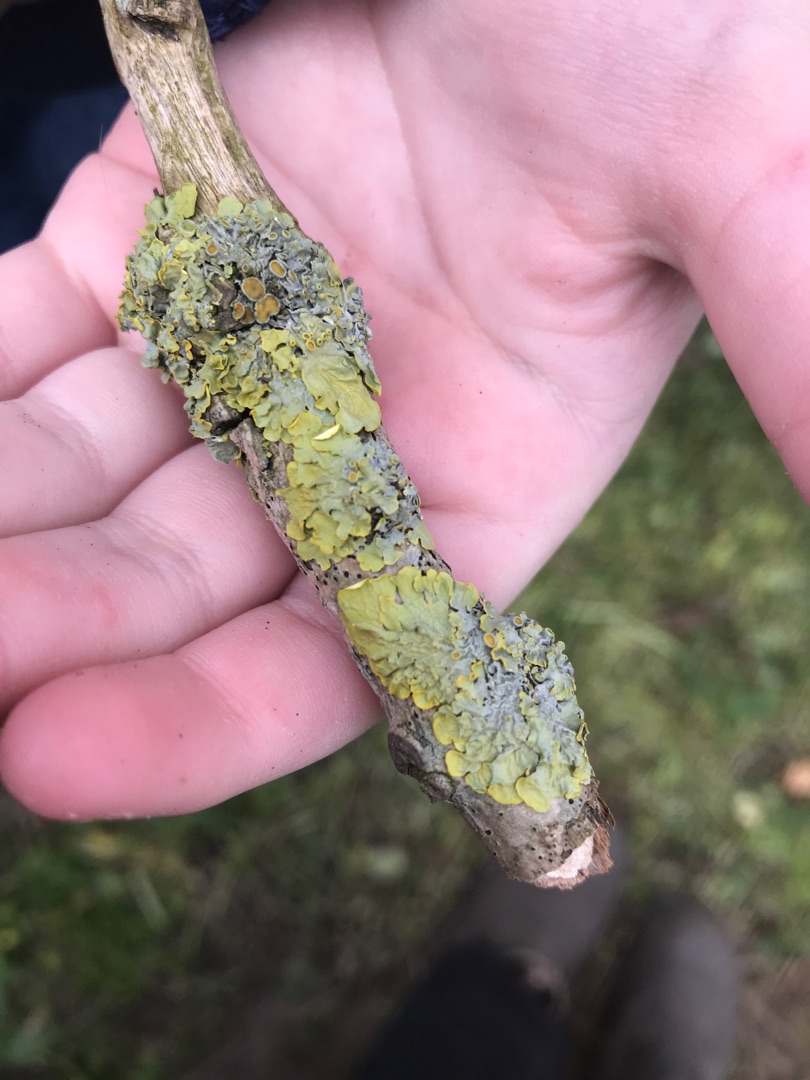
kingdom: Fungi
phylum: Ascomycota
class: Lecanoromycetes
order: Teloschistales
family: Teloschistaceae
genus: Xanthoria
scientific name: Xanthoria parietina
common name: Almindelig væggelav
